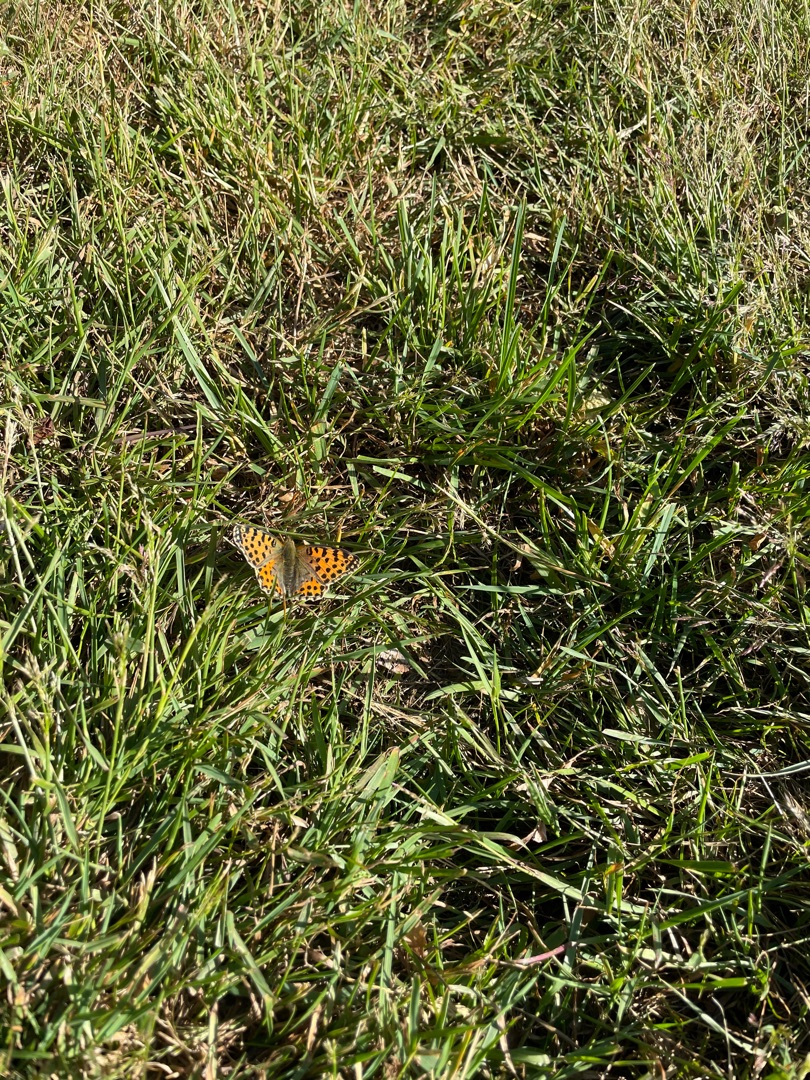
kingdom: Animalia
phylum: Arthropoda
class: Insecta
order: Lepidoptera
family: Nymphalidae
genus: Issoria
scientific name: Issoria lathonia
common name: Storplettet perlemorsommerfugl
